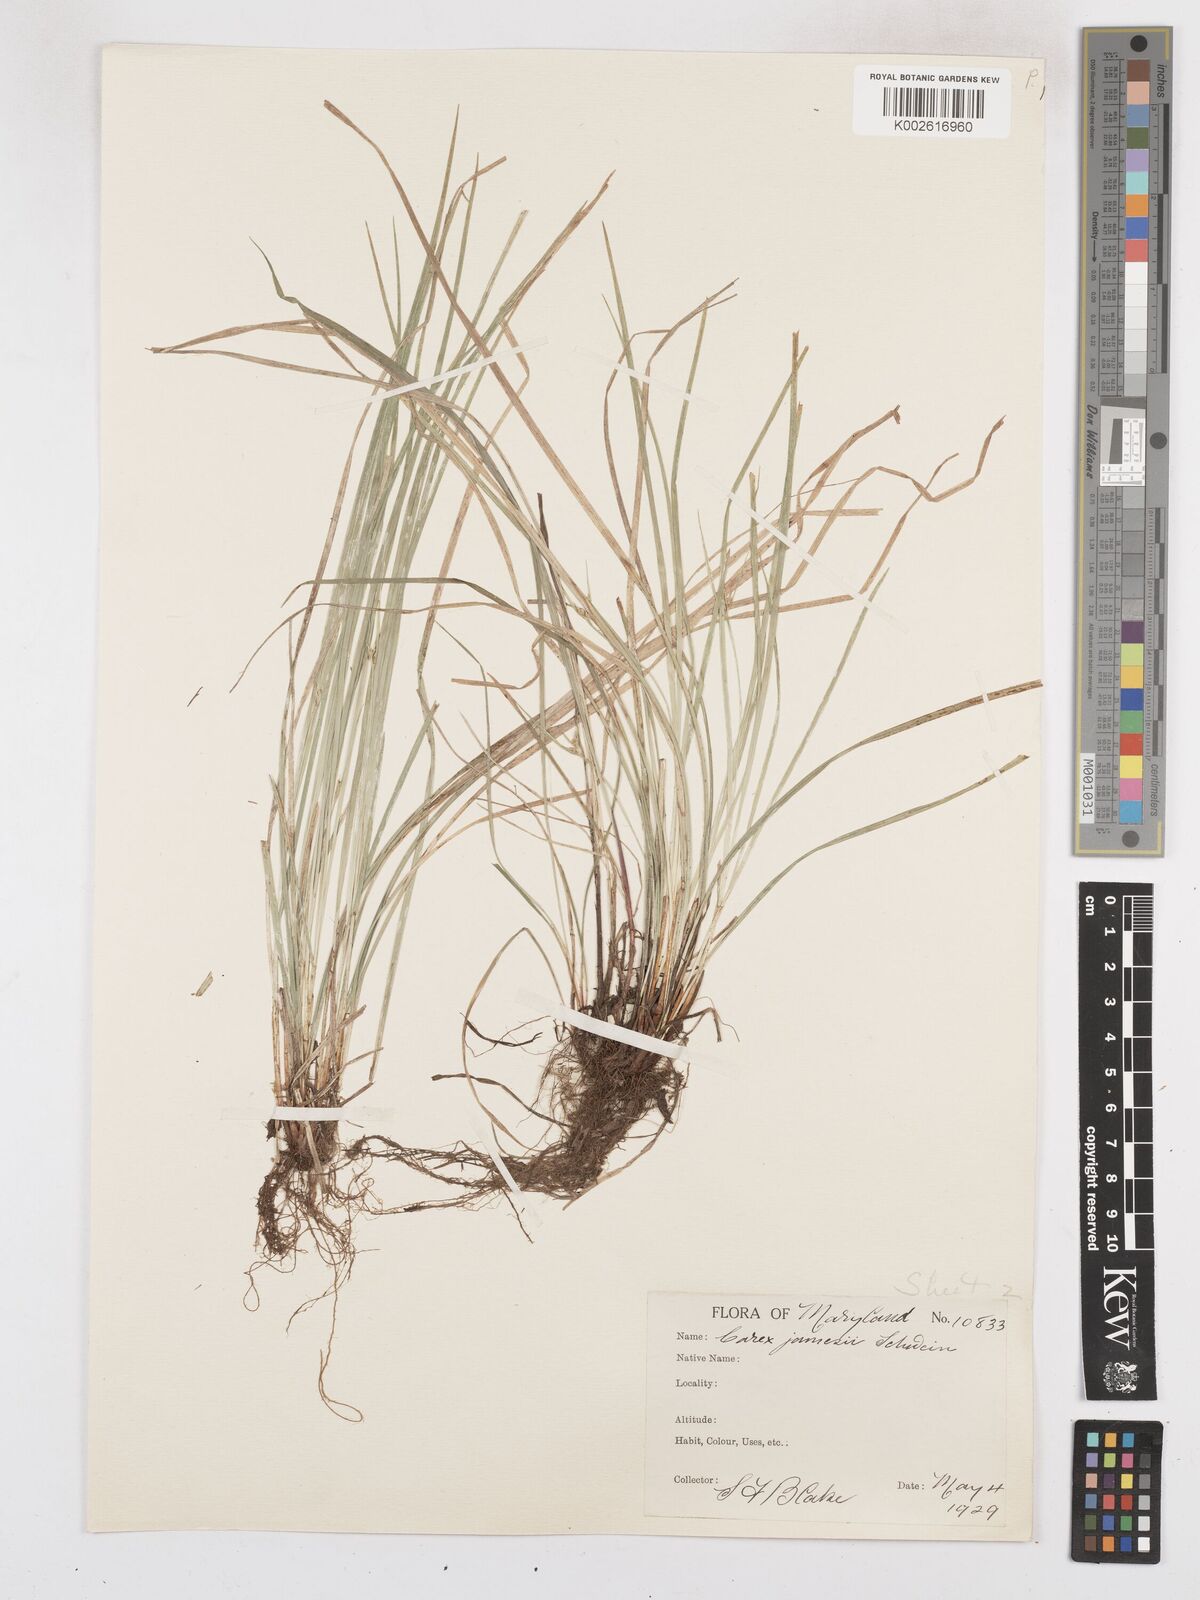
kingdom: Plantae
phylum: Tracheophyta
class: Liliopsida
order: Poales
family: Cyperaceae
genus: Carex
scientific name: Carex jamesii
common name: Grass sedge
